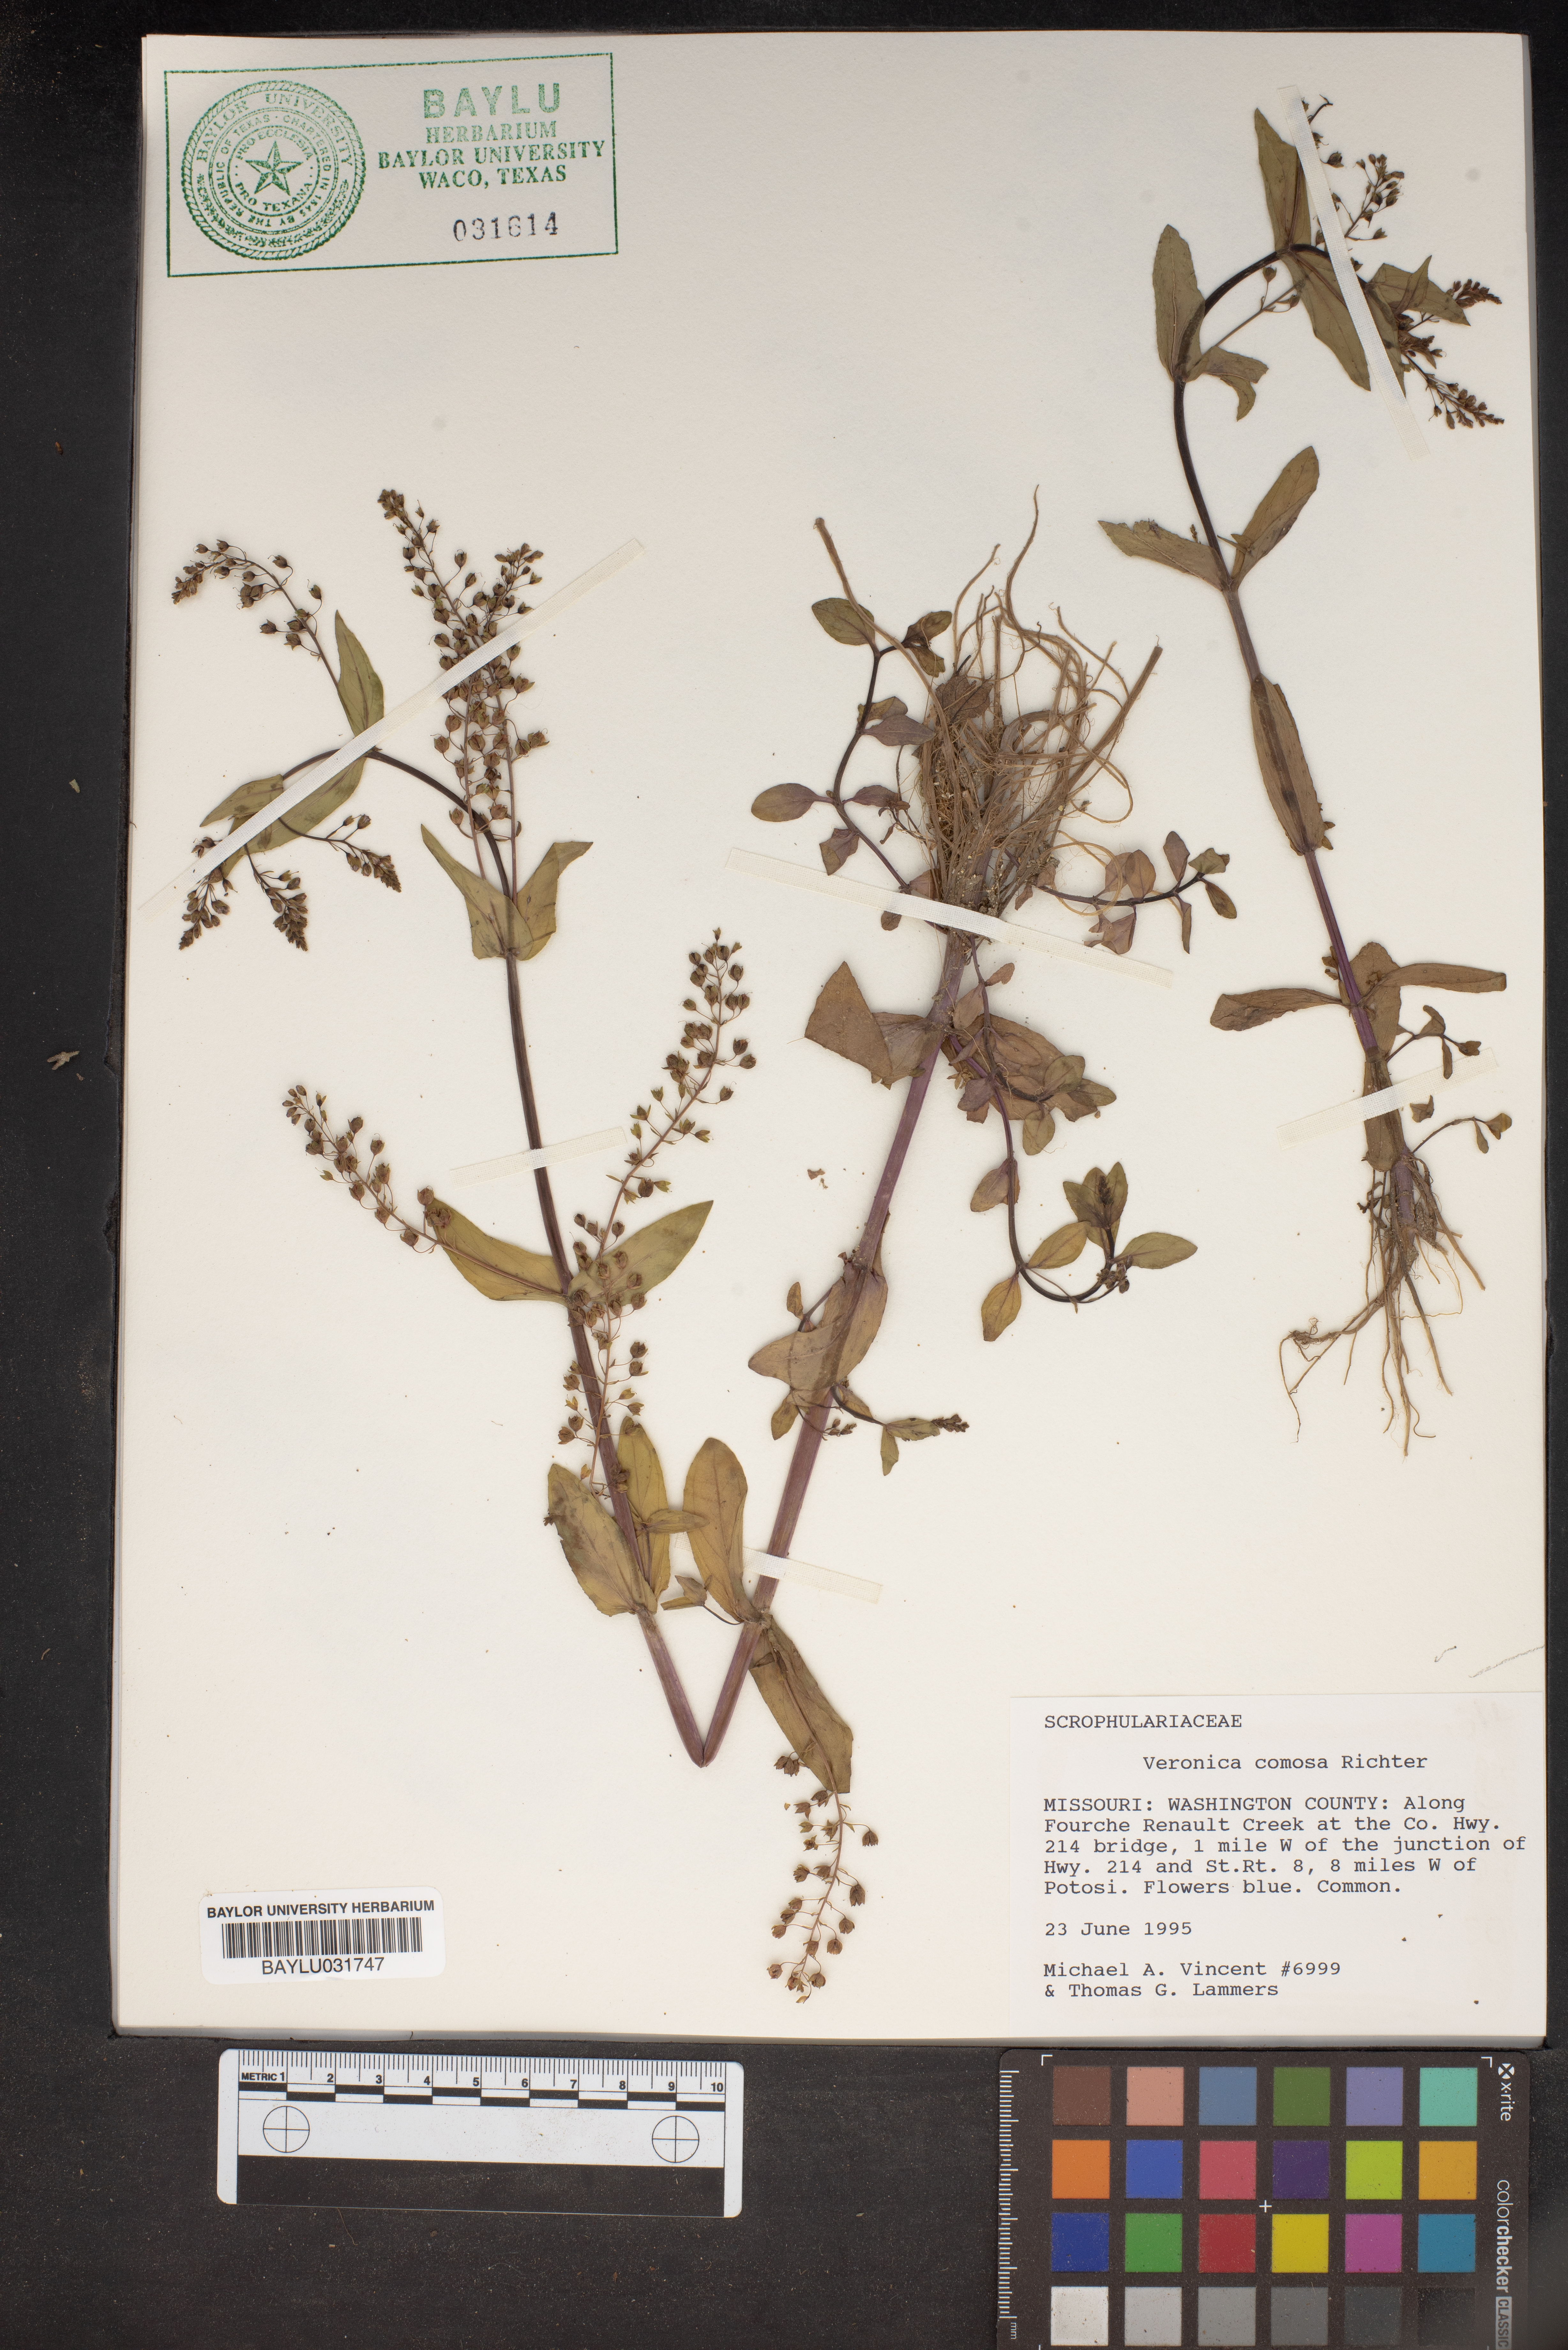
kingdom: Plantae
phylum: Tracheophyta
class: Magnoliopsida
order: Lamiales
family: Plantaginaceae
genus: Veronica
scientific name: Veronica
